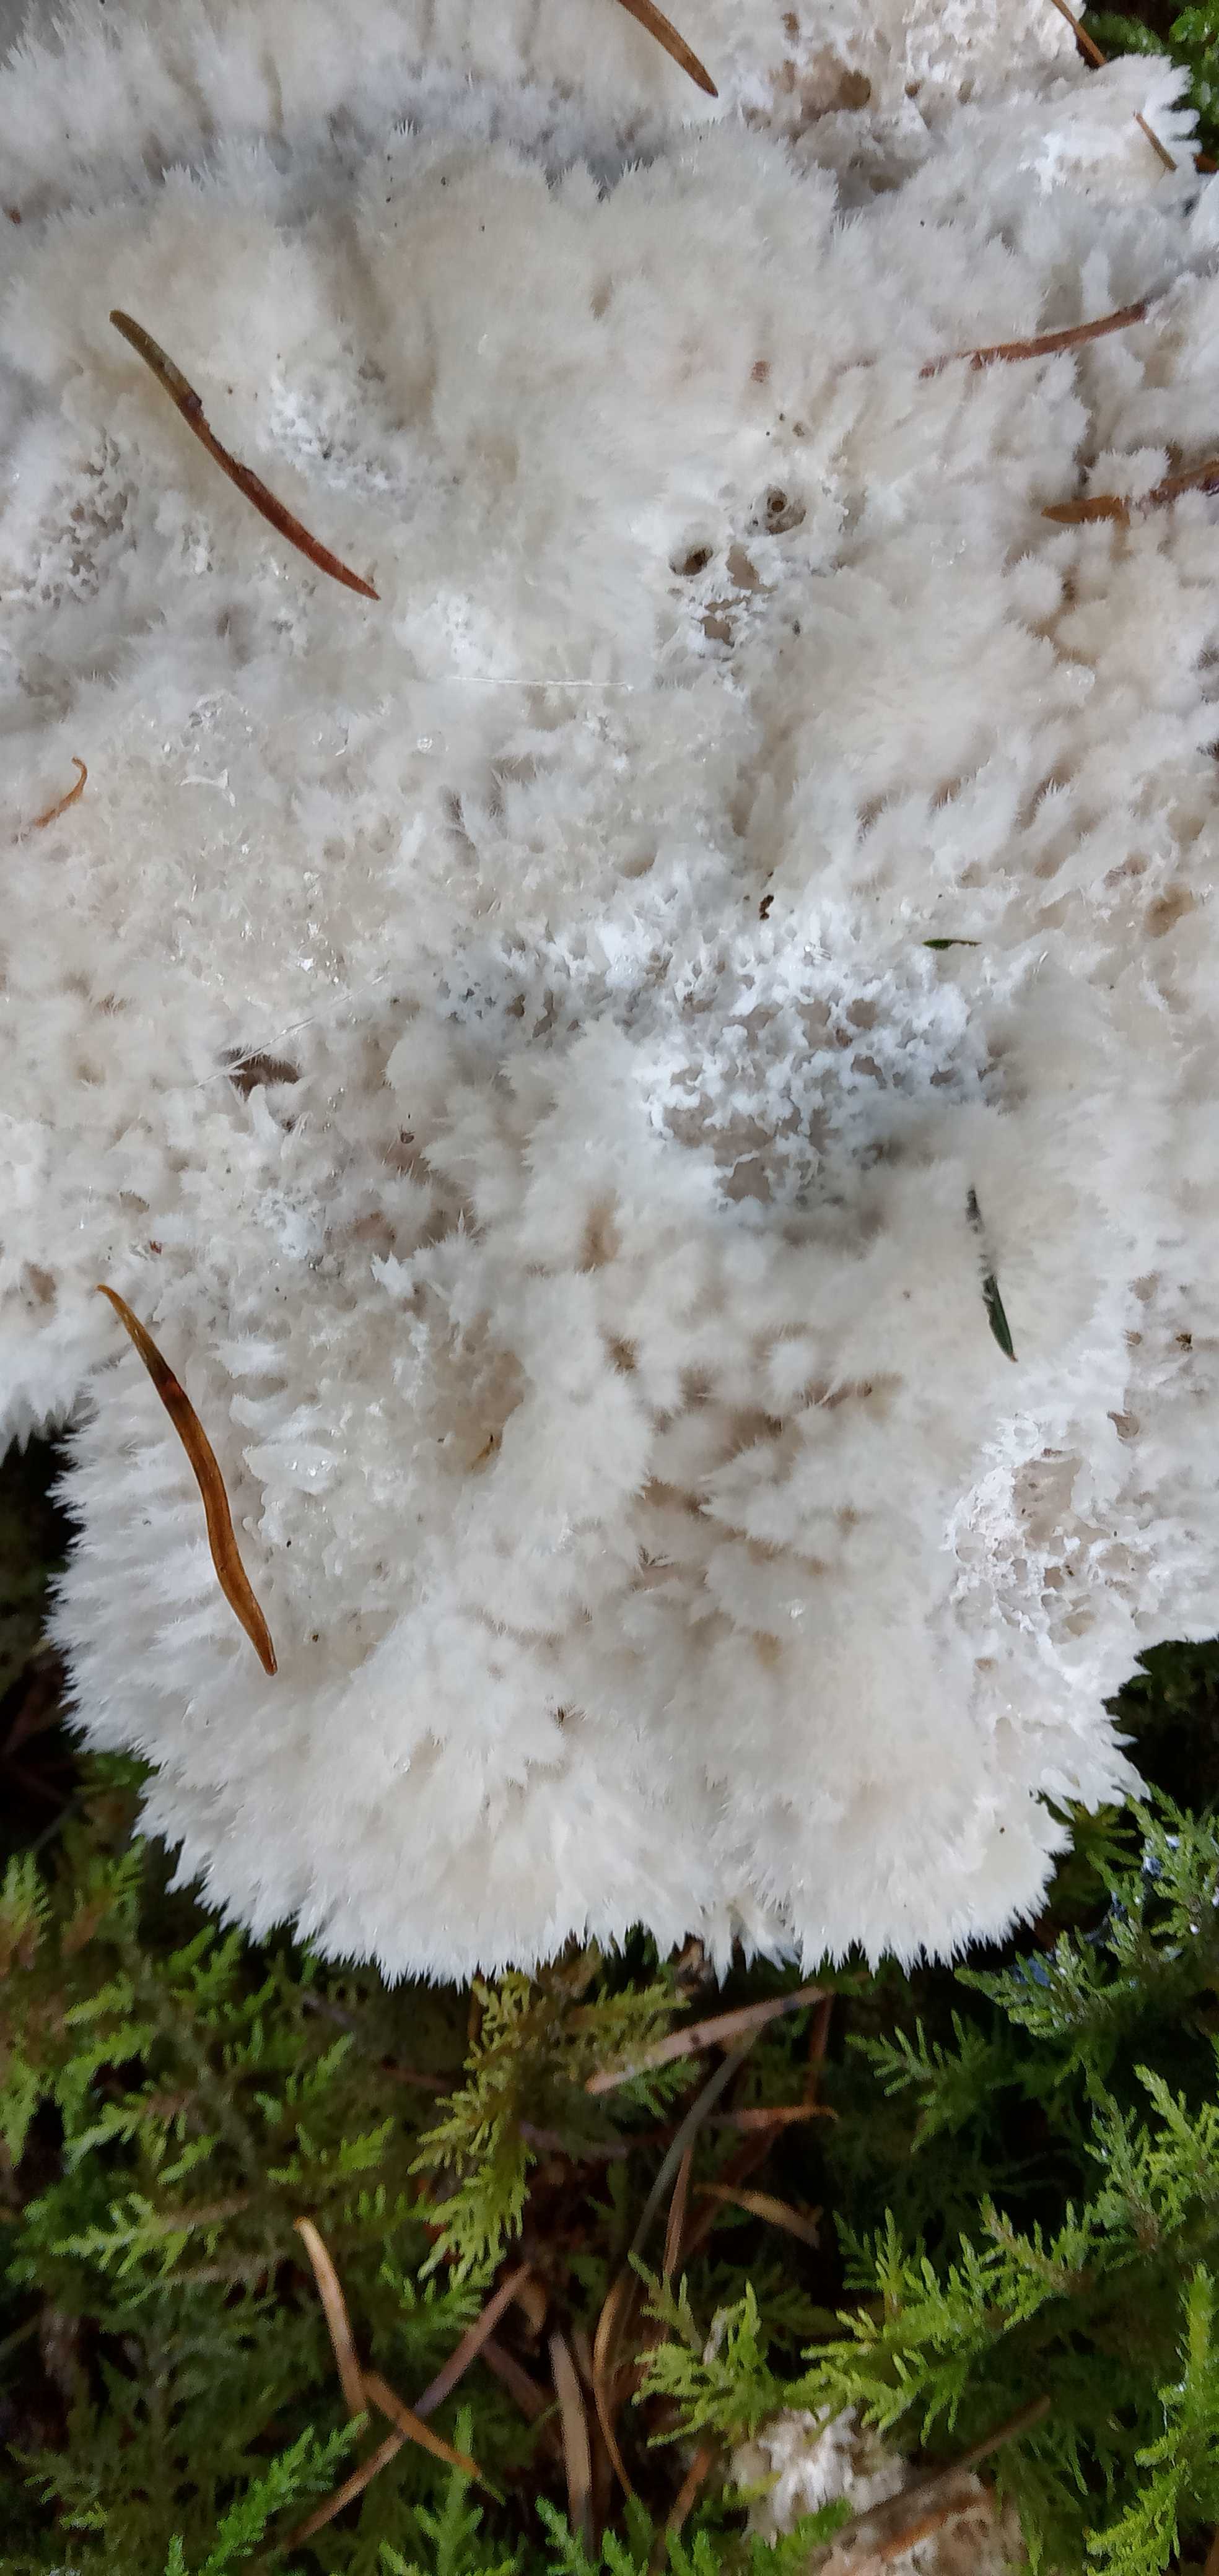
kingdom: Fungi
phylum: Basidiomycota
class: Agaricomycetes
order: Polyporales
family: Dacryobolaceae
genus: Postia
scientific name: Postia ptychogaster
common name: støvende kødporesvamp
